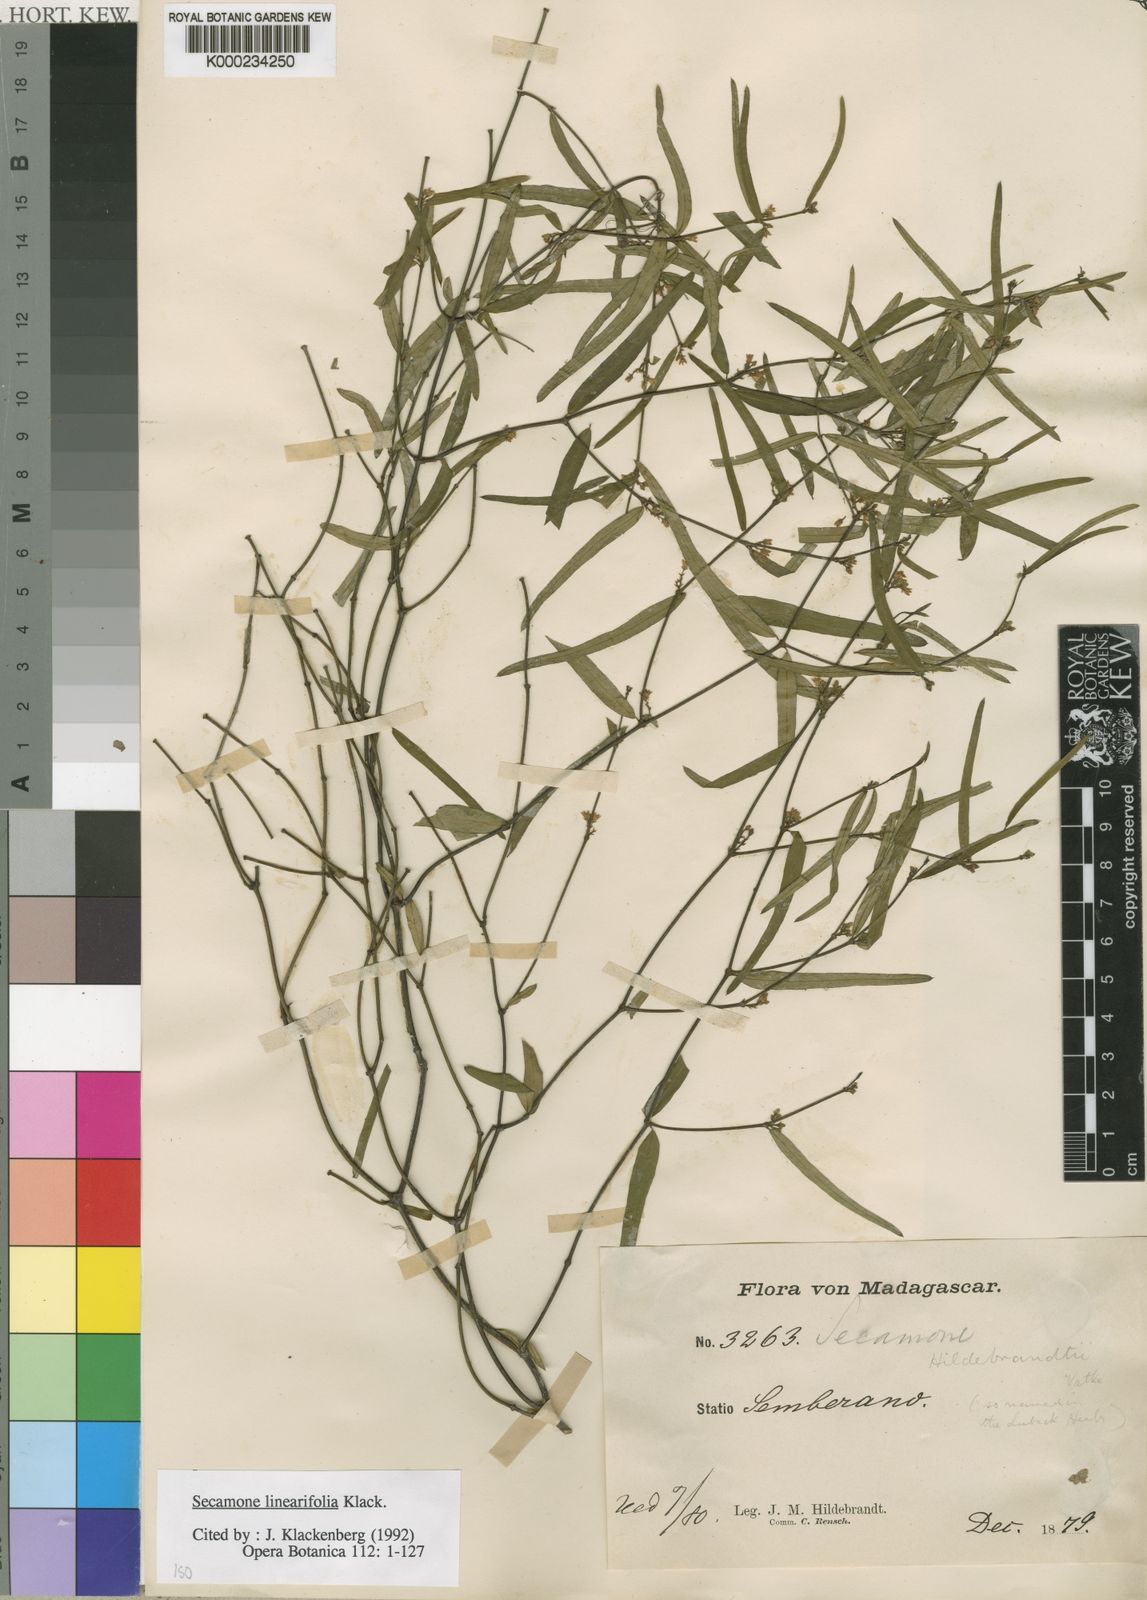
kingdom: Plantae
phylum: Tracheophyta
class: Magnoliopsida
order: Gentianales
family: Apocynaceae
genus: Secamone
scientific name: Secamone linearifolia
